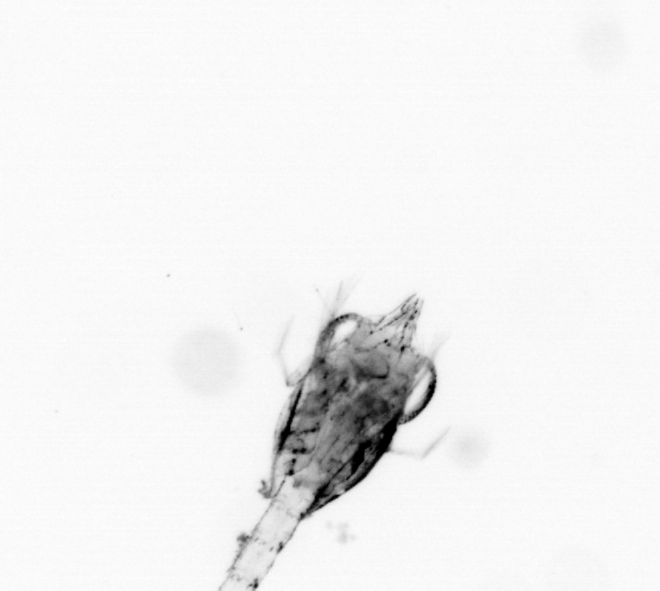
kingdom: Animalia
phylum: Arthropoda
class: Malacostraca
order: Decapoda
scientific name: Decapoda
